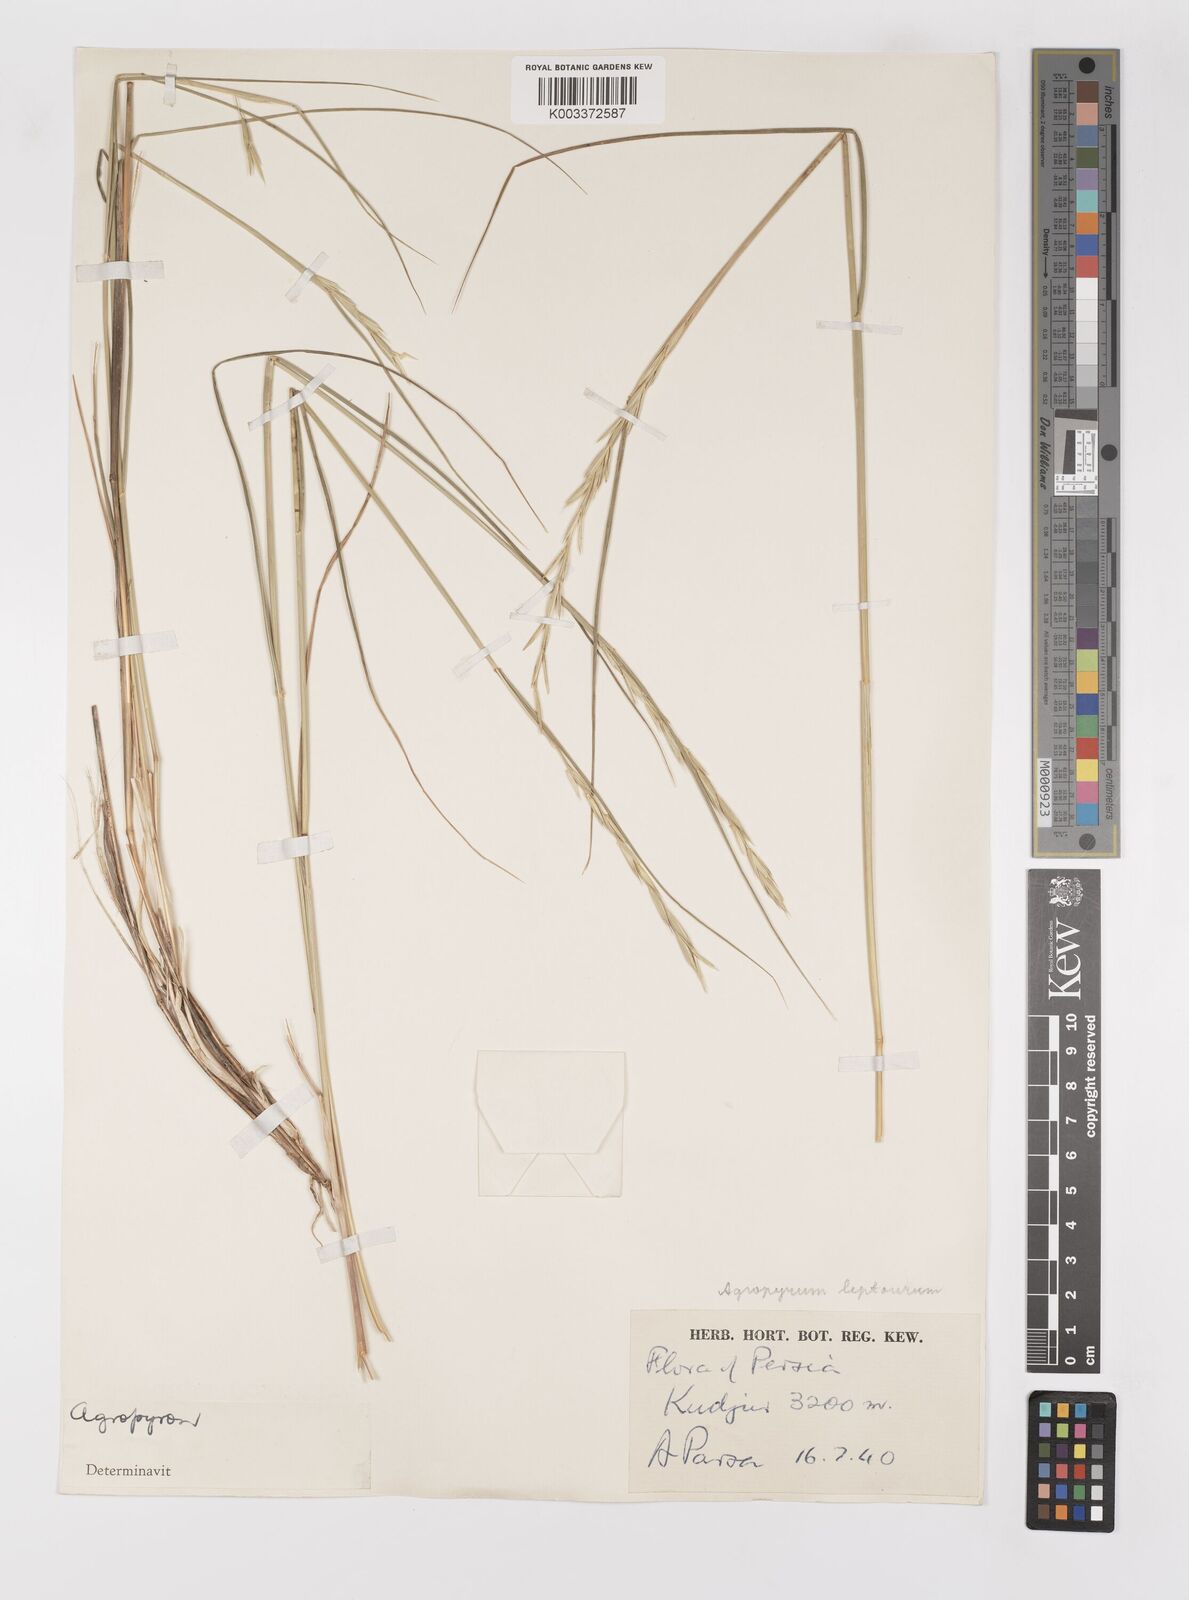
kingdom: Plantae
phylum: Tracheophyta
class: Liliopsida
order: Poales
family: Poaceae
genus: Elymus
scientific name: Elymus transhyrcanus
